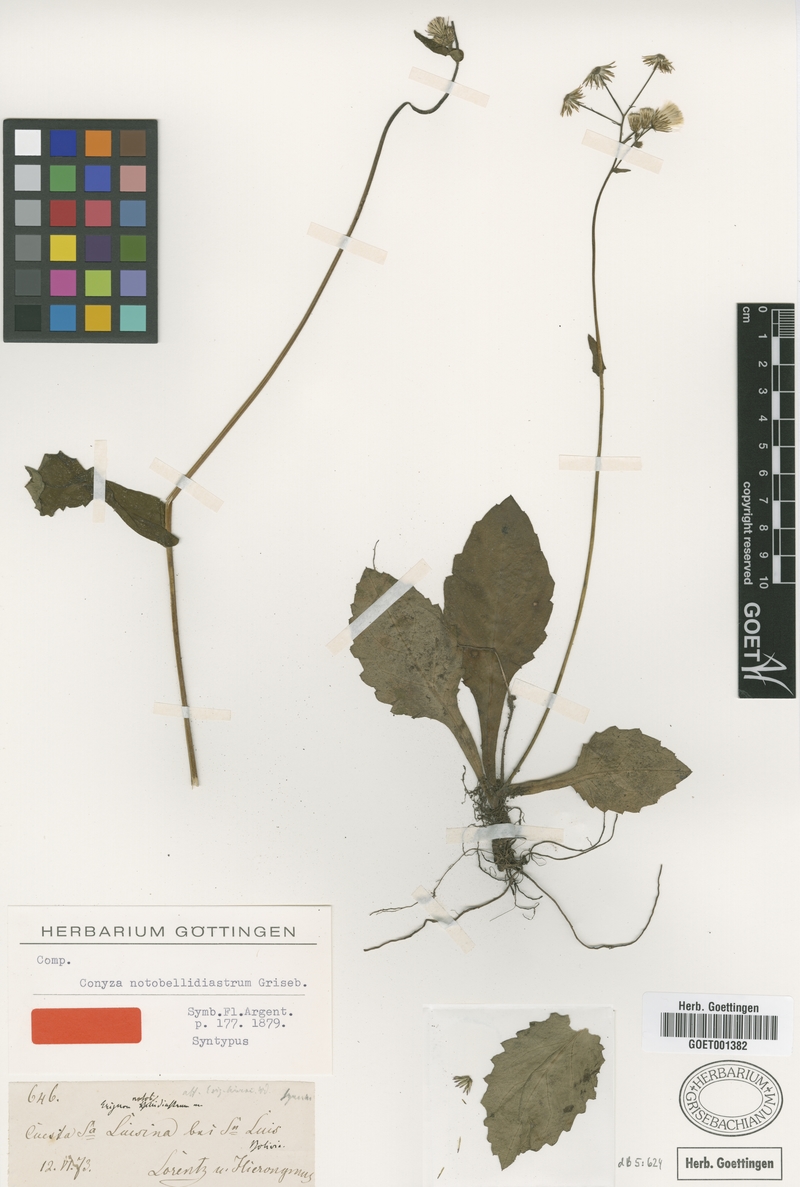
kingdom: Plantae
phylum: Tracheophyta
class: Magnoliopsida
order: Asterales
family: Asteraceae
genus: Exostigma
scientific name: Exostigma notobellidiastrum
